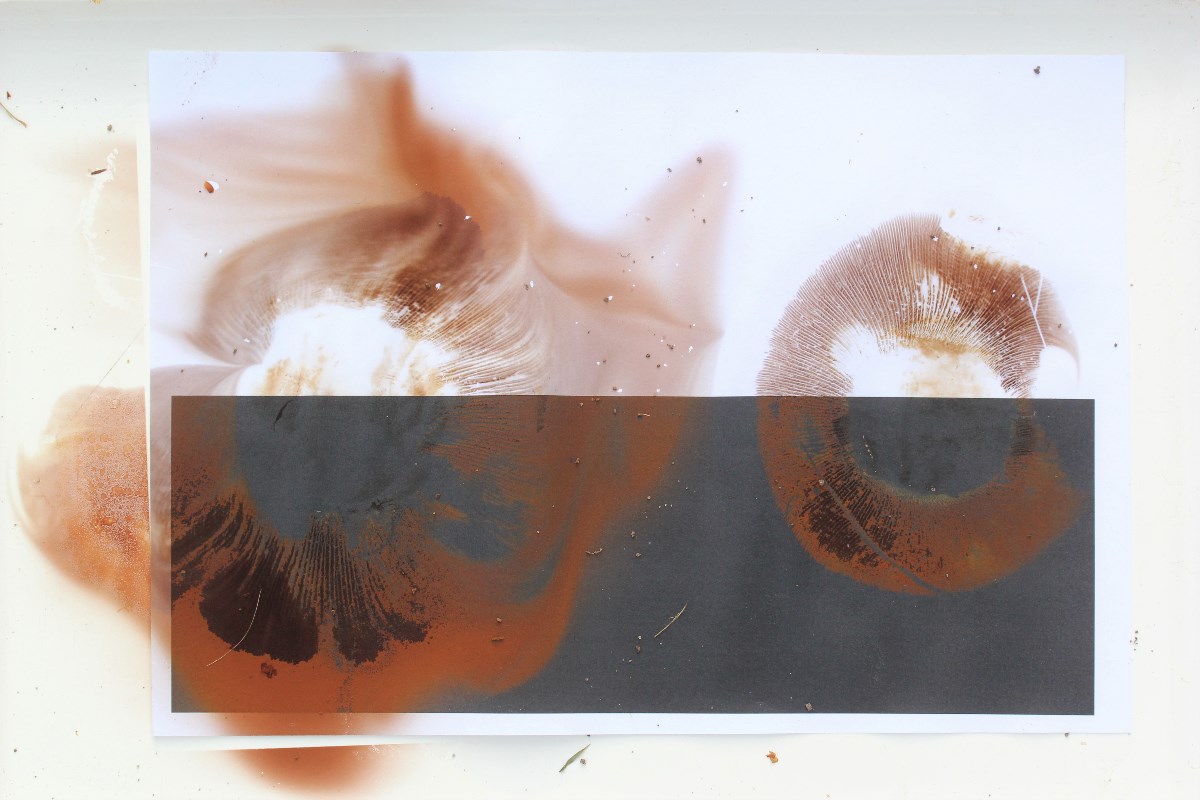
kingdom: Fungi
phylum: Basidiomycota
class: Agaricomycetes
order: Boletales
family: Paxillaceae
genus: Paxillus
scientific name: Paxillus ammoniavirescens
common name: olivensporet netbladhat
